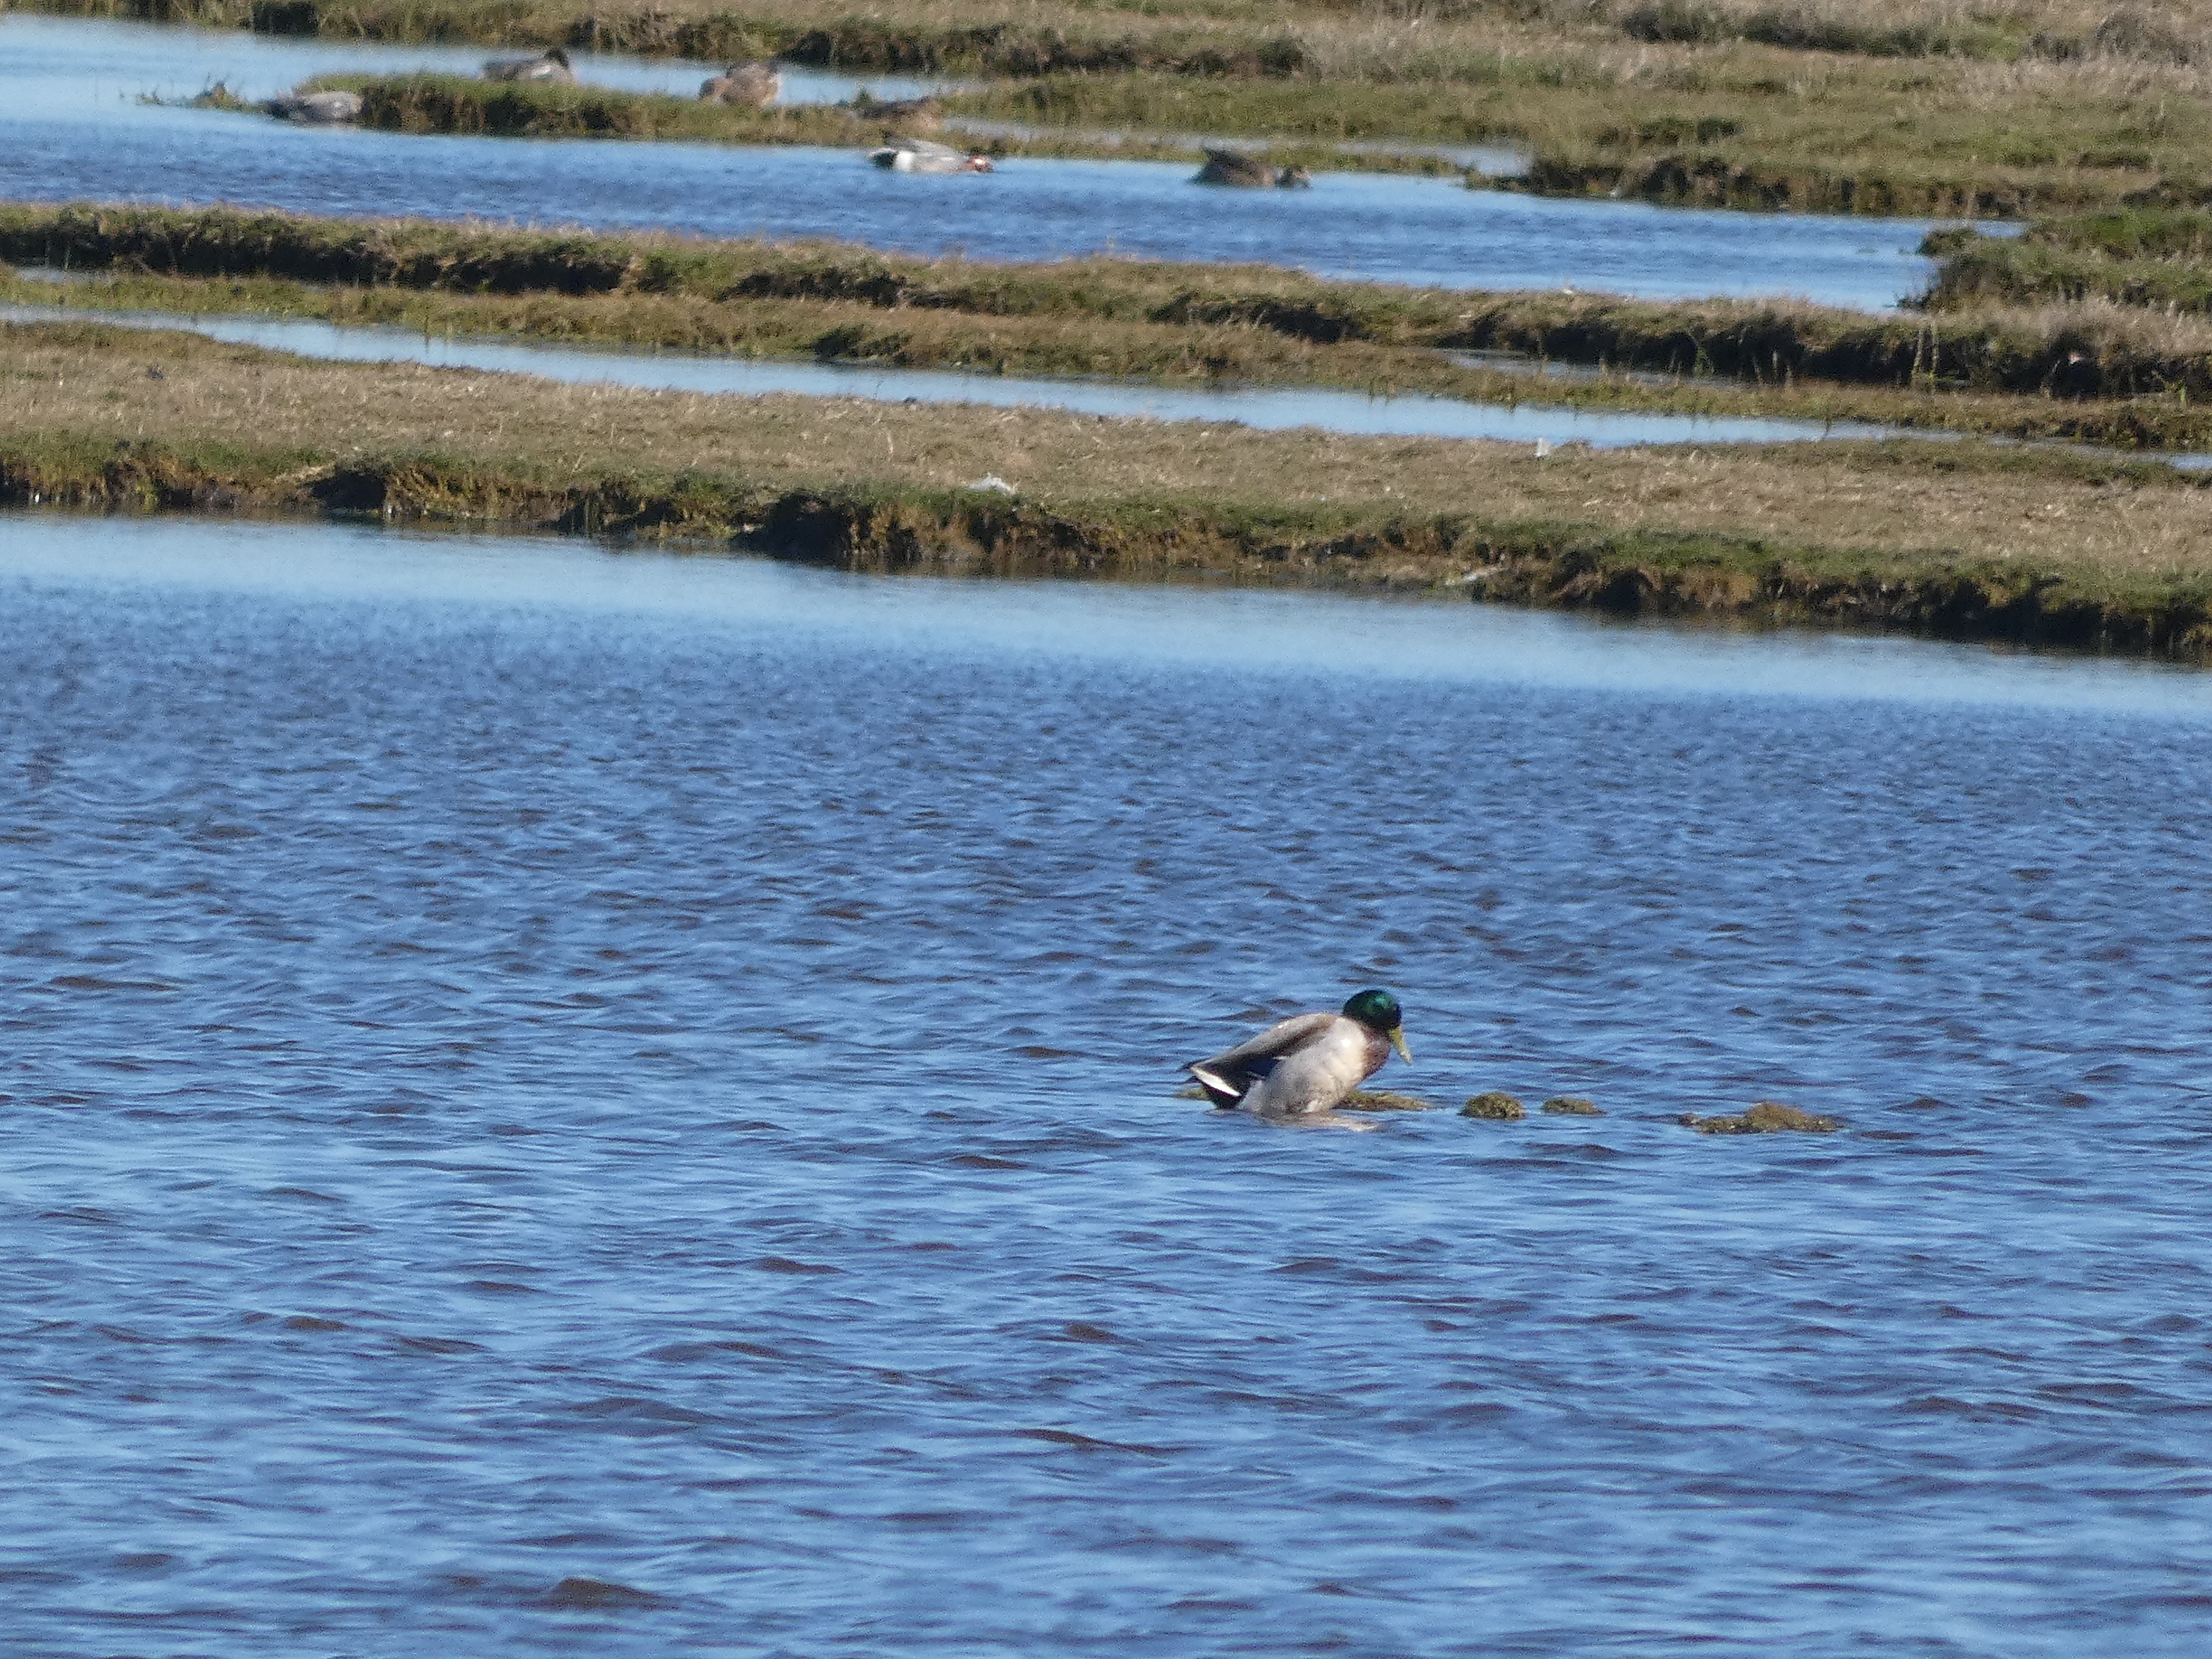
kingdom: Animalia
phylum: Chordata
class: Aves
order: Anseriformes
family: Anatidae
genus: Anas
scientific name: Anas platyrhynchos
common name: Gråand
